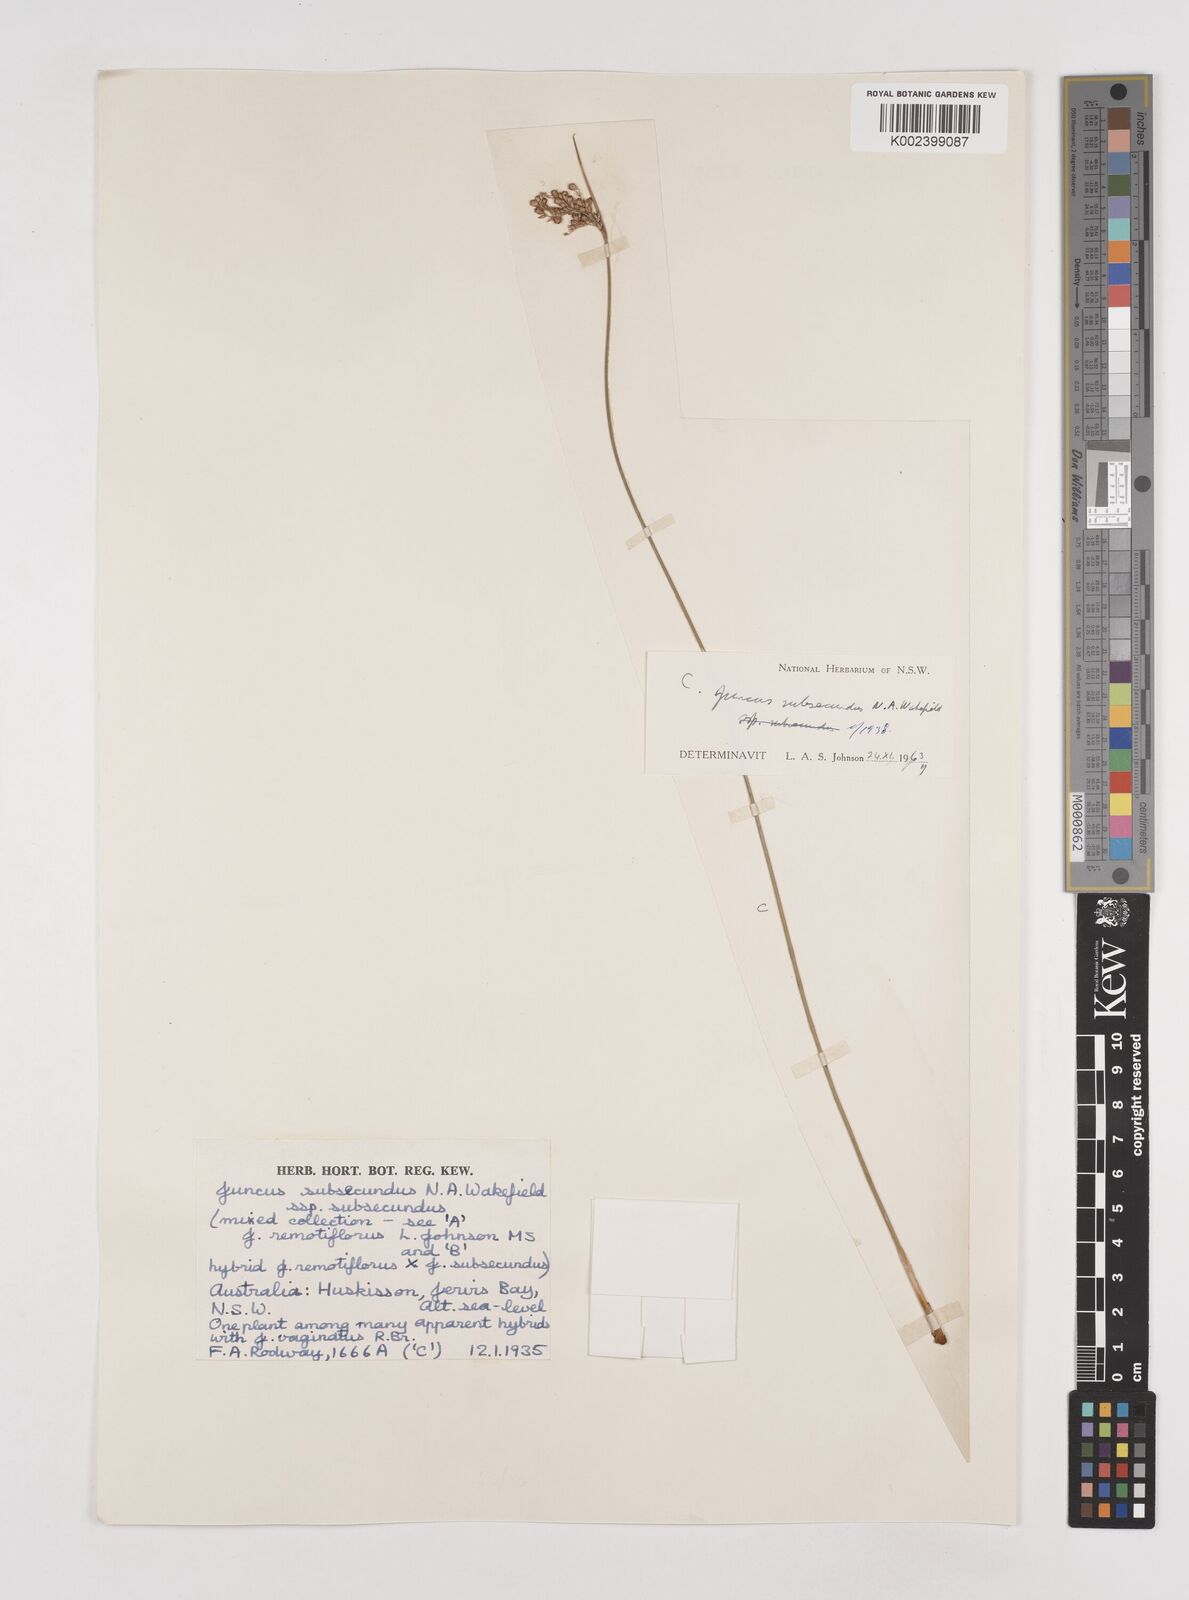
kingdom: Plantae
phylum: Tracheophyta
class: Liliopsida
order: Poales
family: Juncaceae
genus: Juncus
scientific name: Juncus subsecundus
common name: Fingered rush
